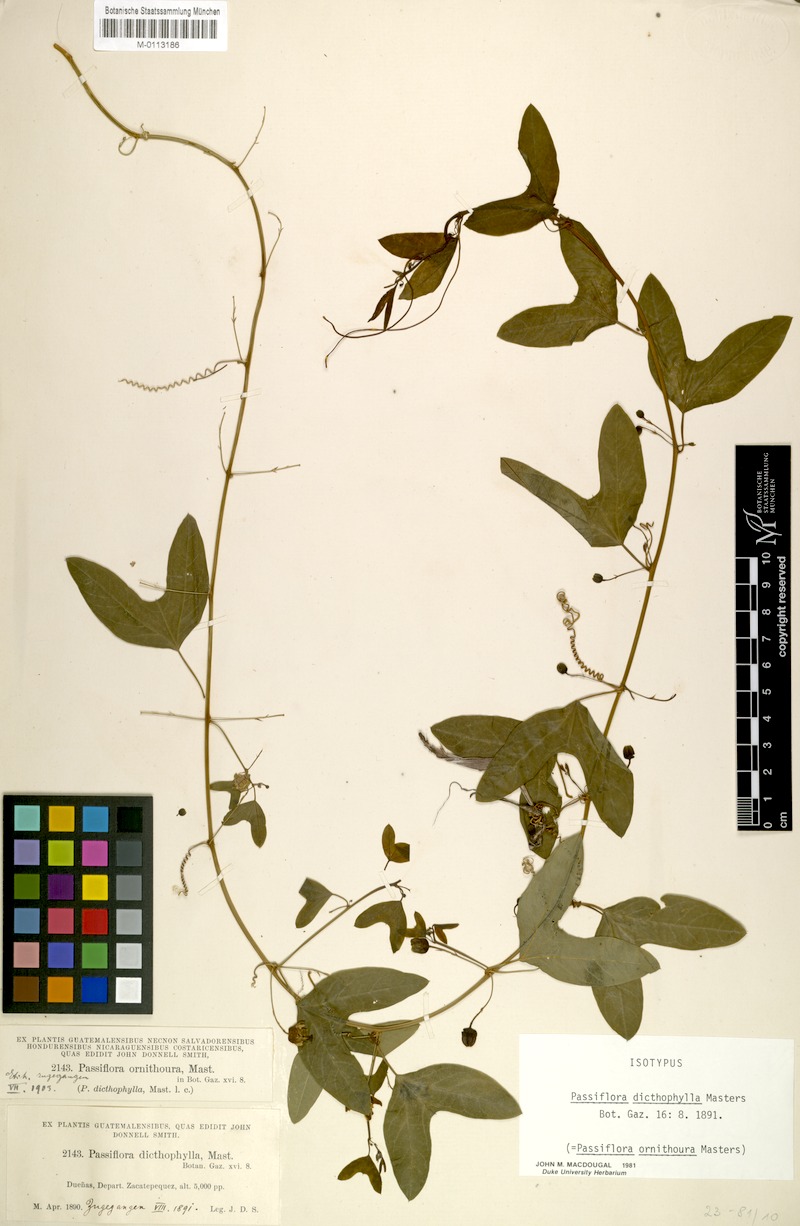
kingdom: Plantae
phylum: Tracheophyta
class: Magnoliopsida
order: Malpighiales
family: Passifloraceae
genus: Passiflora
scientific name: Passiflora ornithoura
